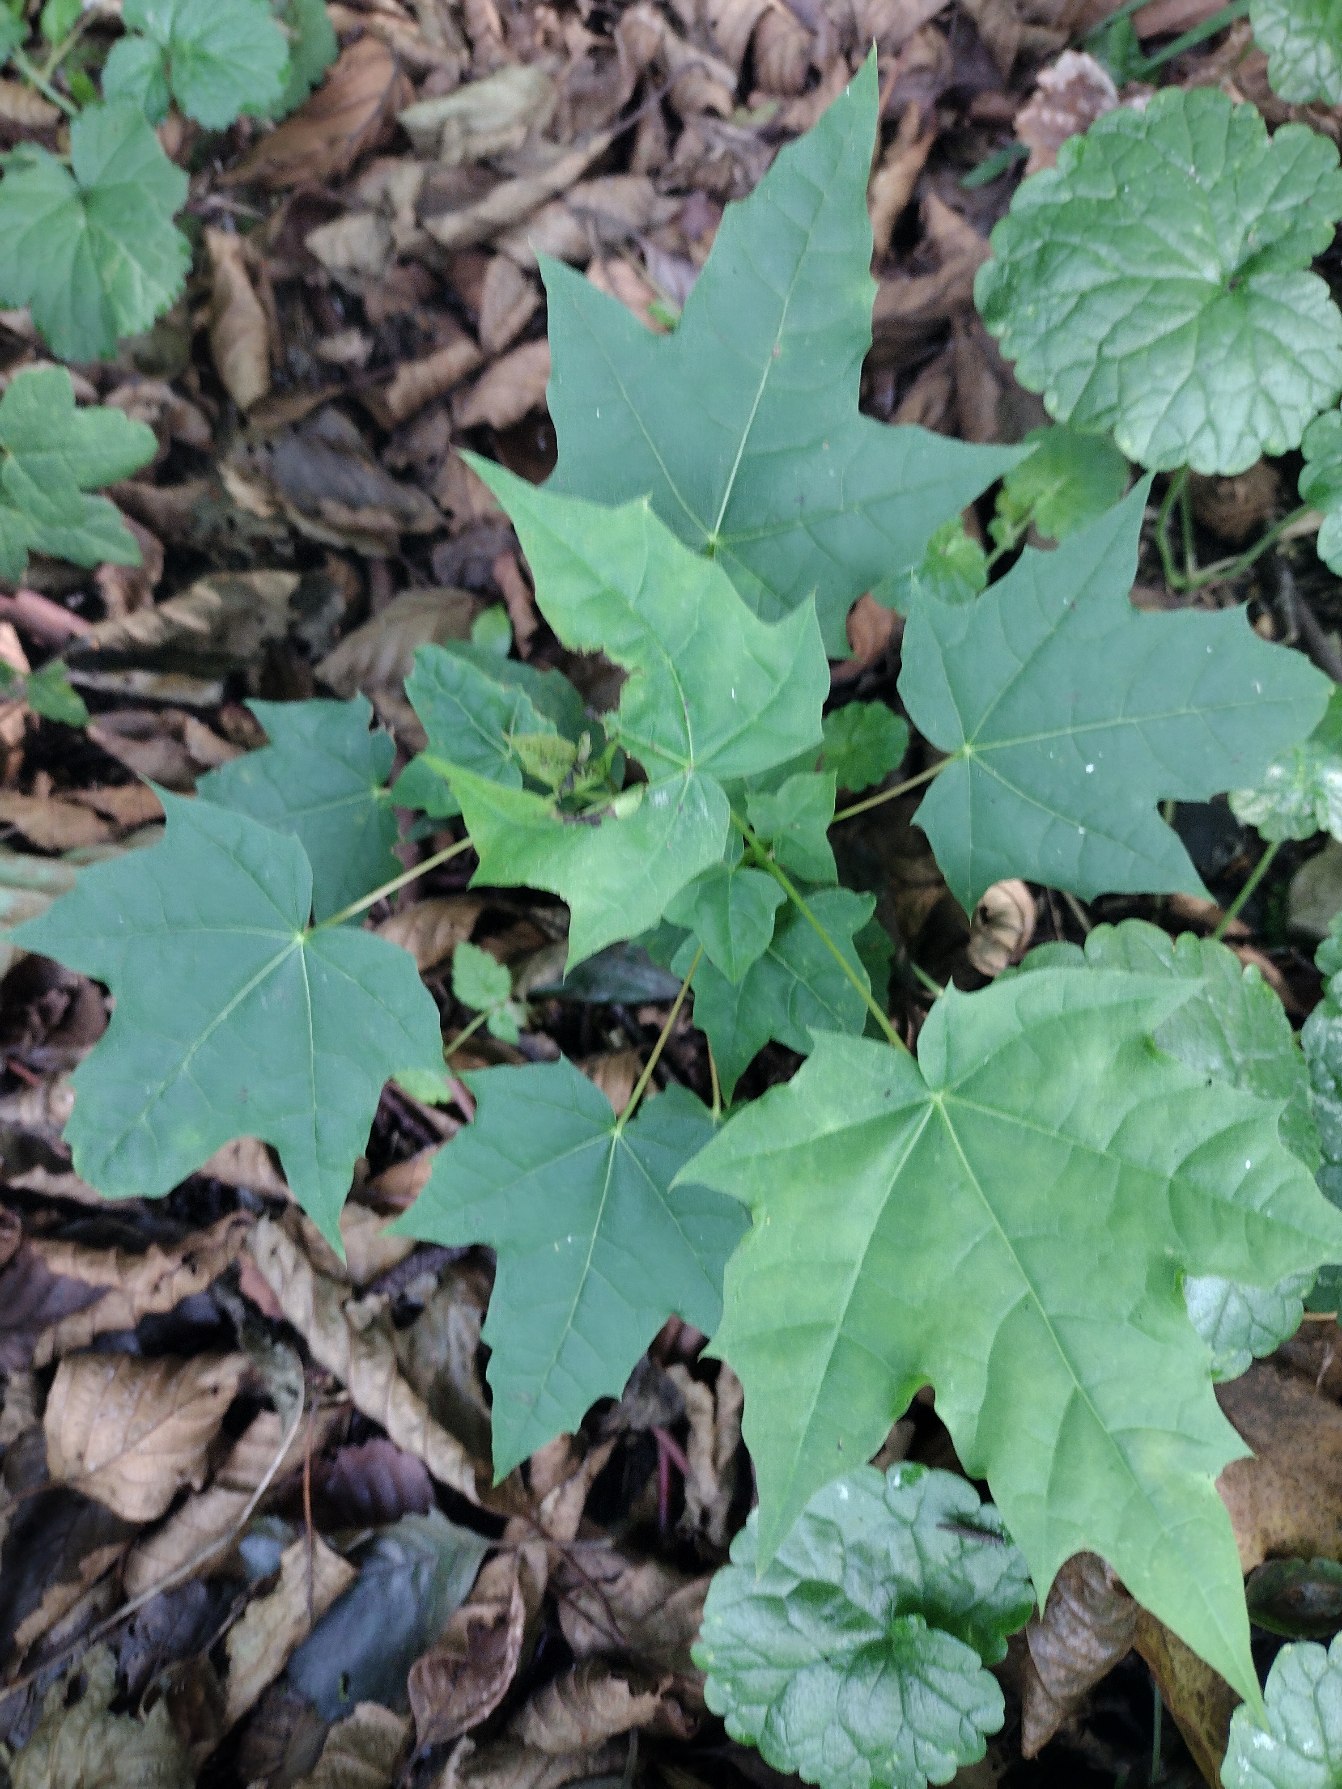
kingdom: Plantae
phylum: Tracheophyta
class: Magnoliopsida
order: Sapindales
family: Sapindaceae
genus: Acer
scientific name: Acer platanoides
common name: Spids-løn
